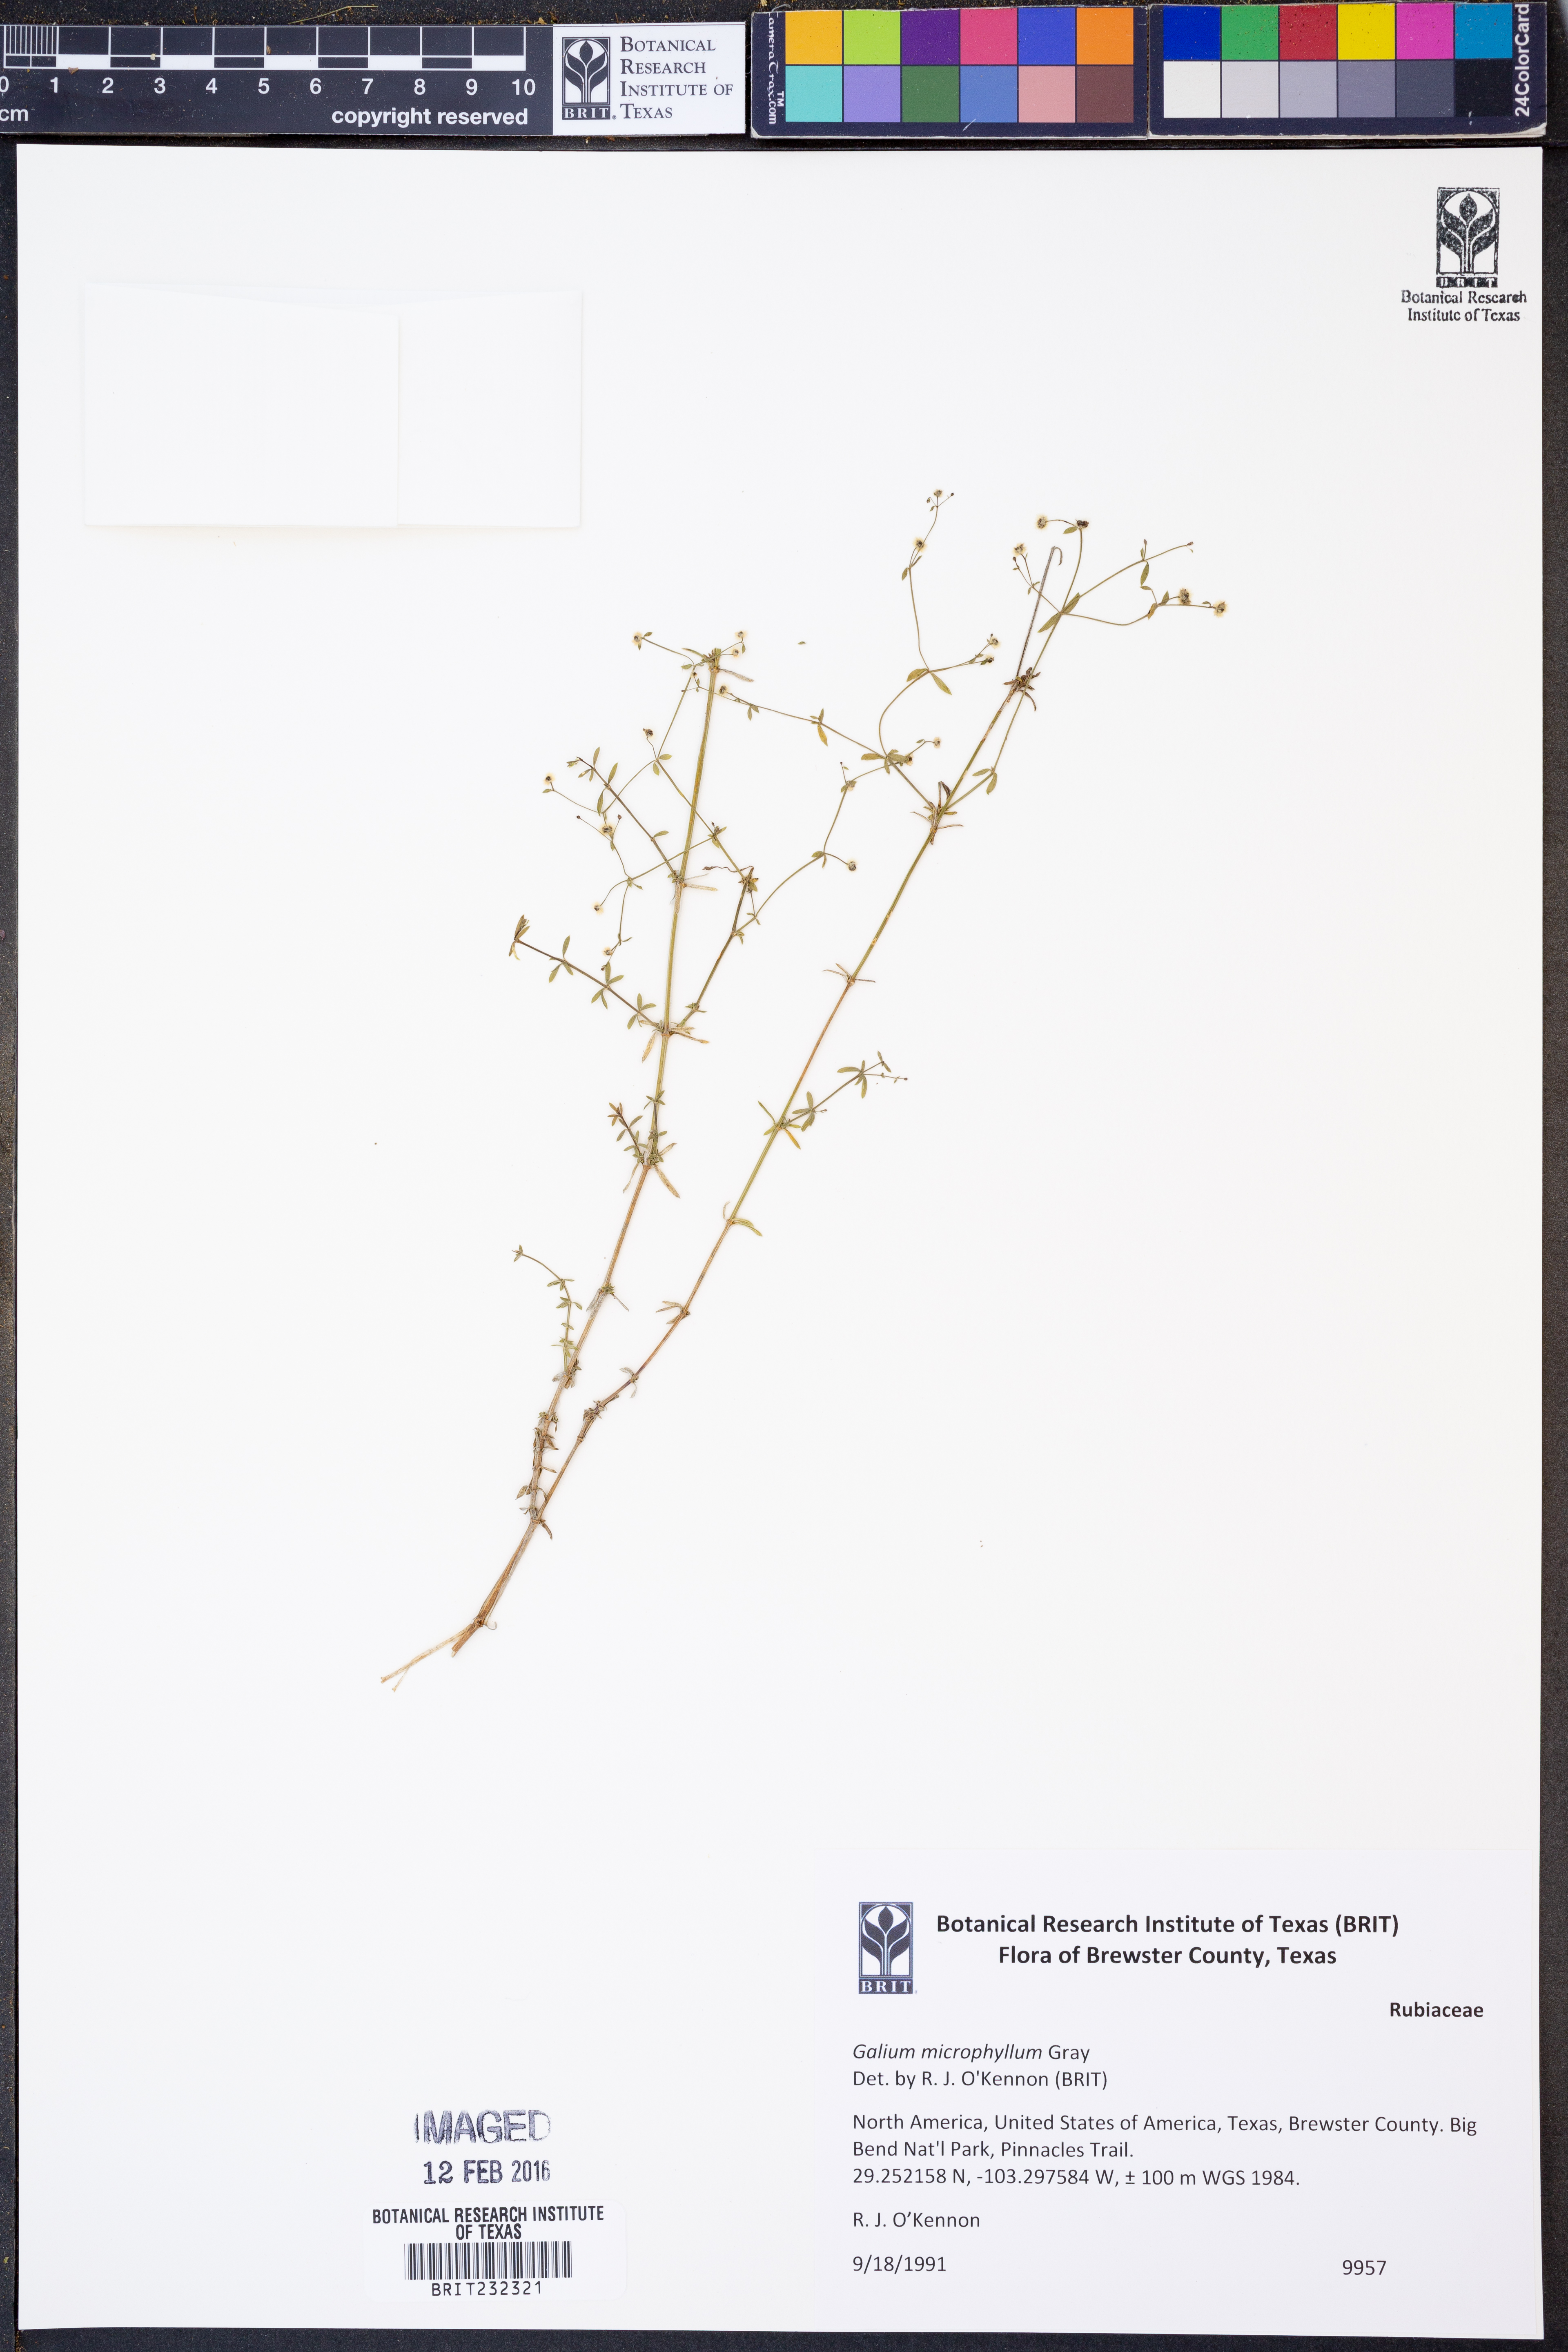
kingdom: Plantae
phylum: Tracheophyta
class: Magnoliopsida
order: Gentianales
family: Rubiaceae
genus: Galium
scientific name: Galium microphyllum
